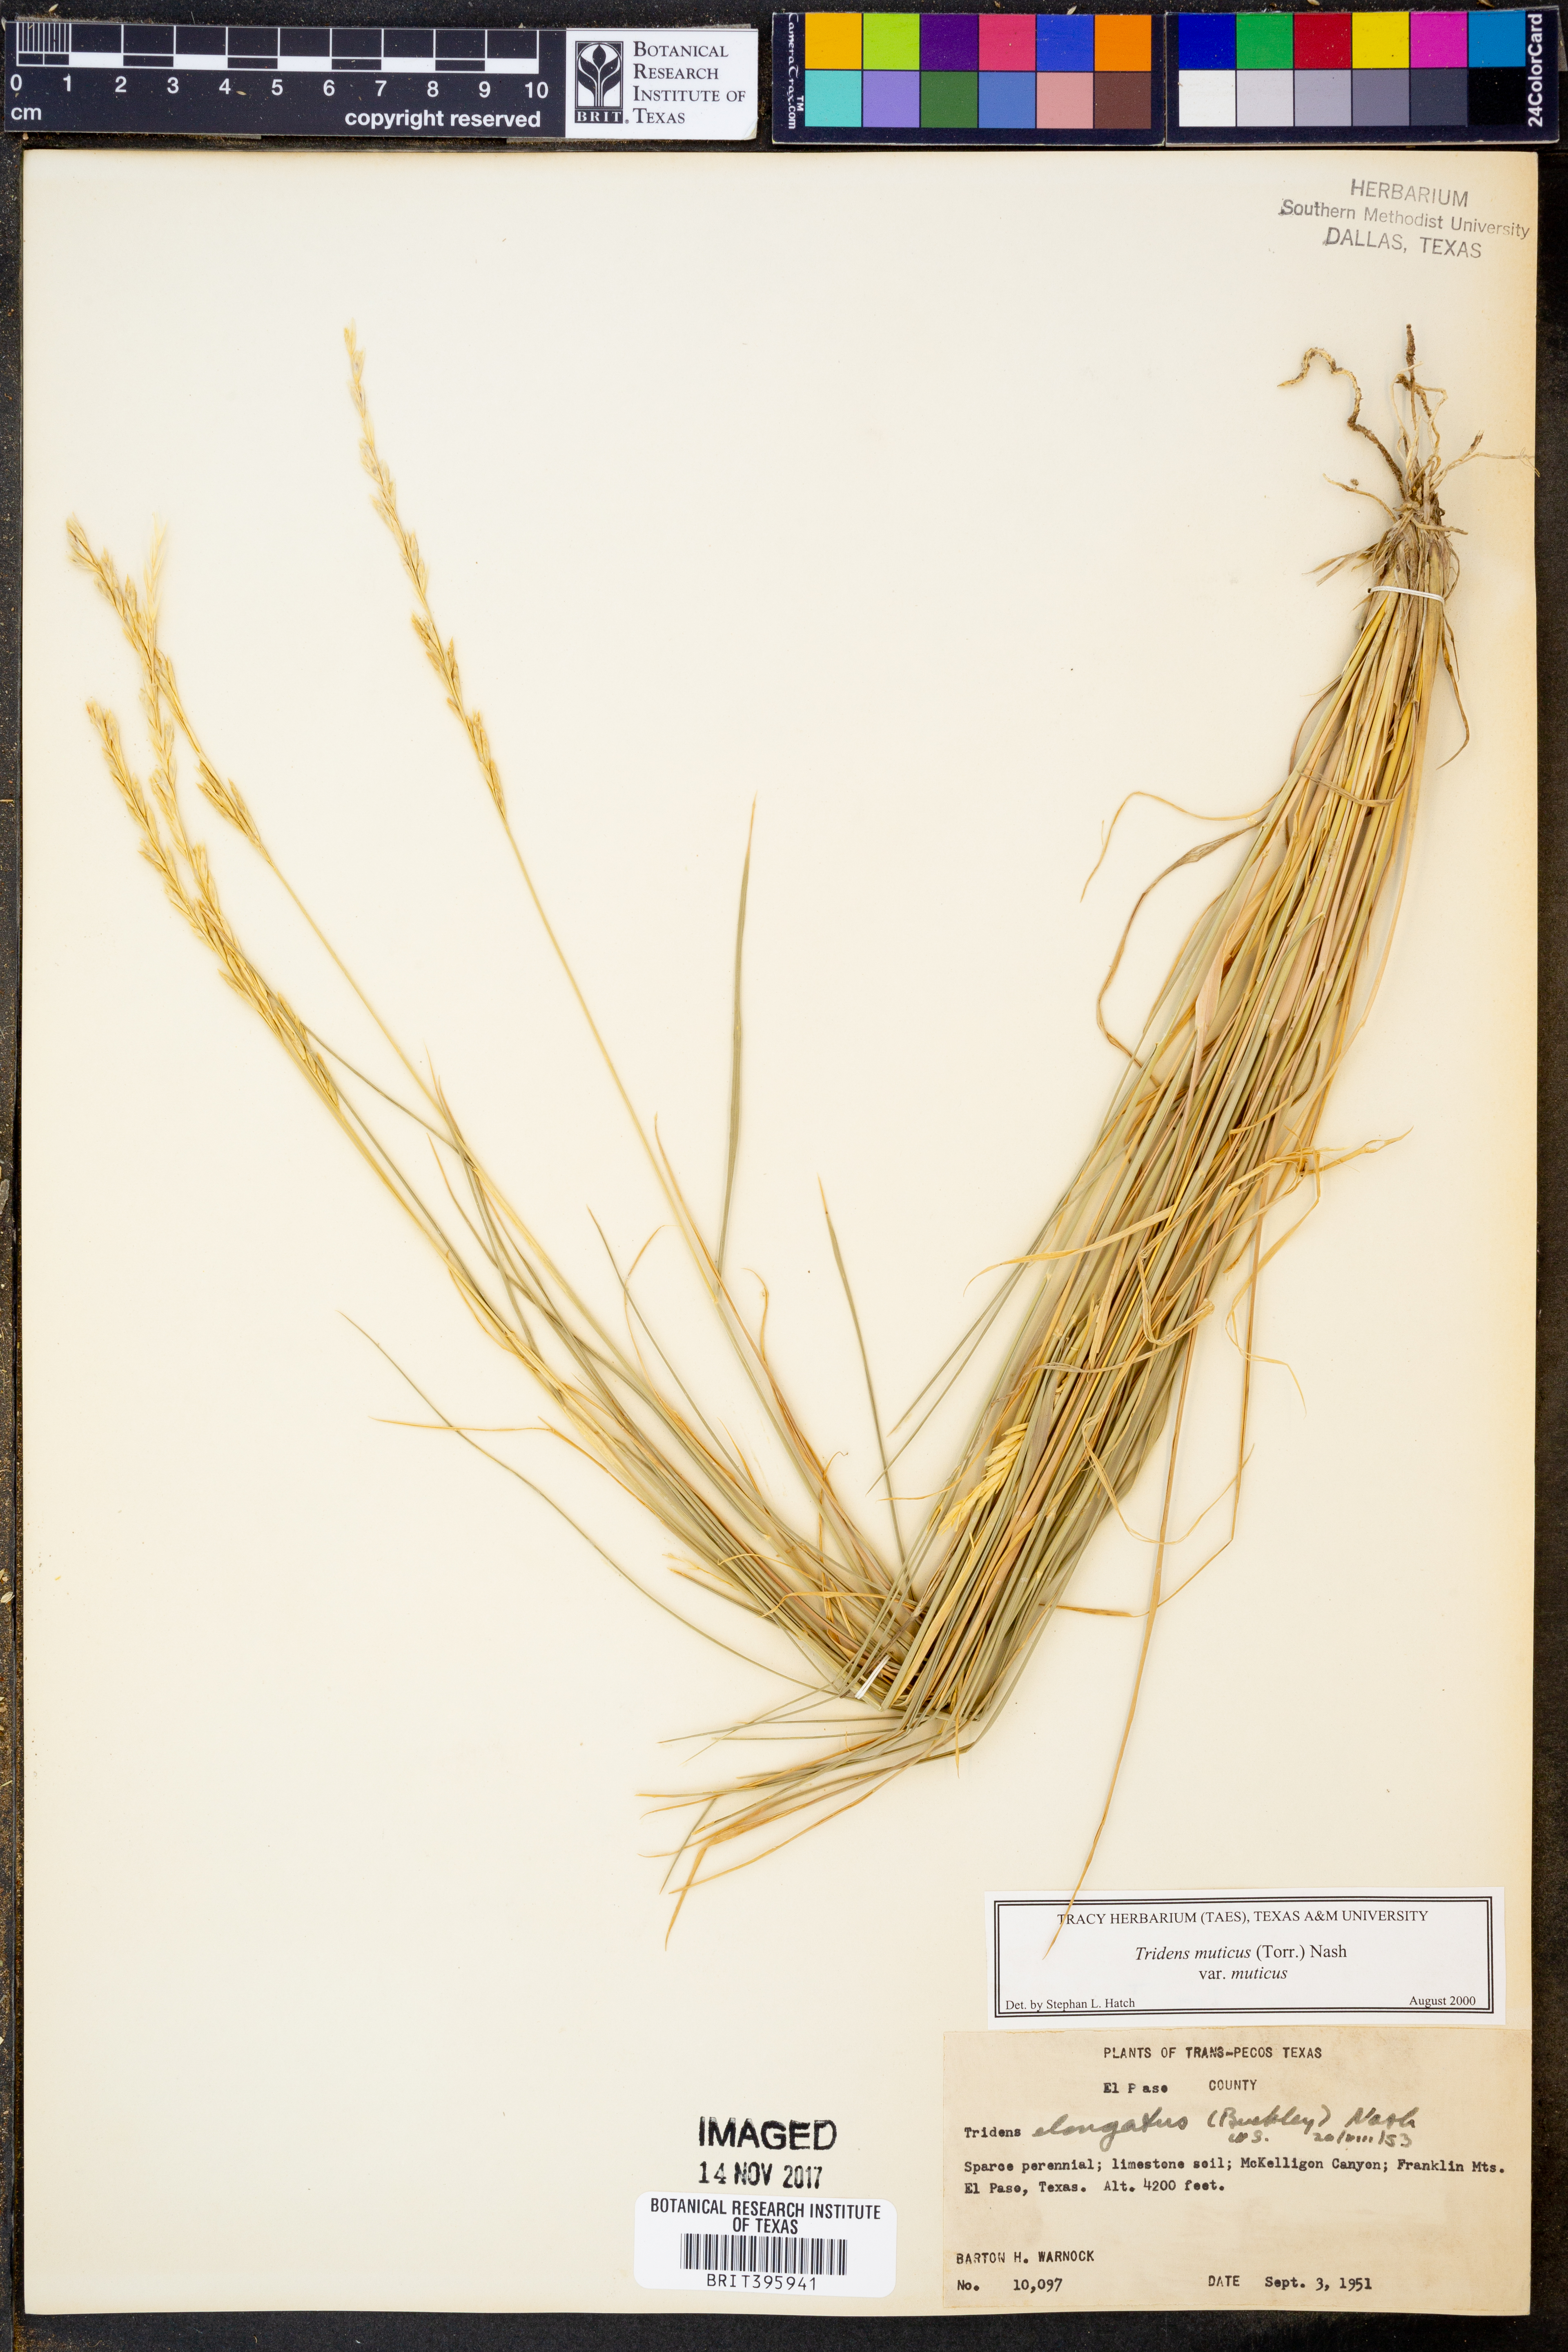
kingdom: Plantae
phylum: Tracheophyta
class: Liliopsida
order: Poales
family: Poaceae
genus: Tridentopsis
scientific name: Tridentopsis mutica
